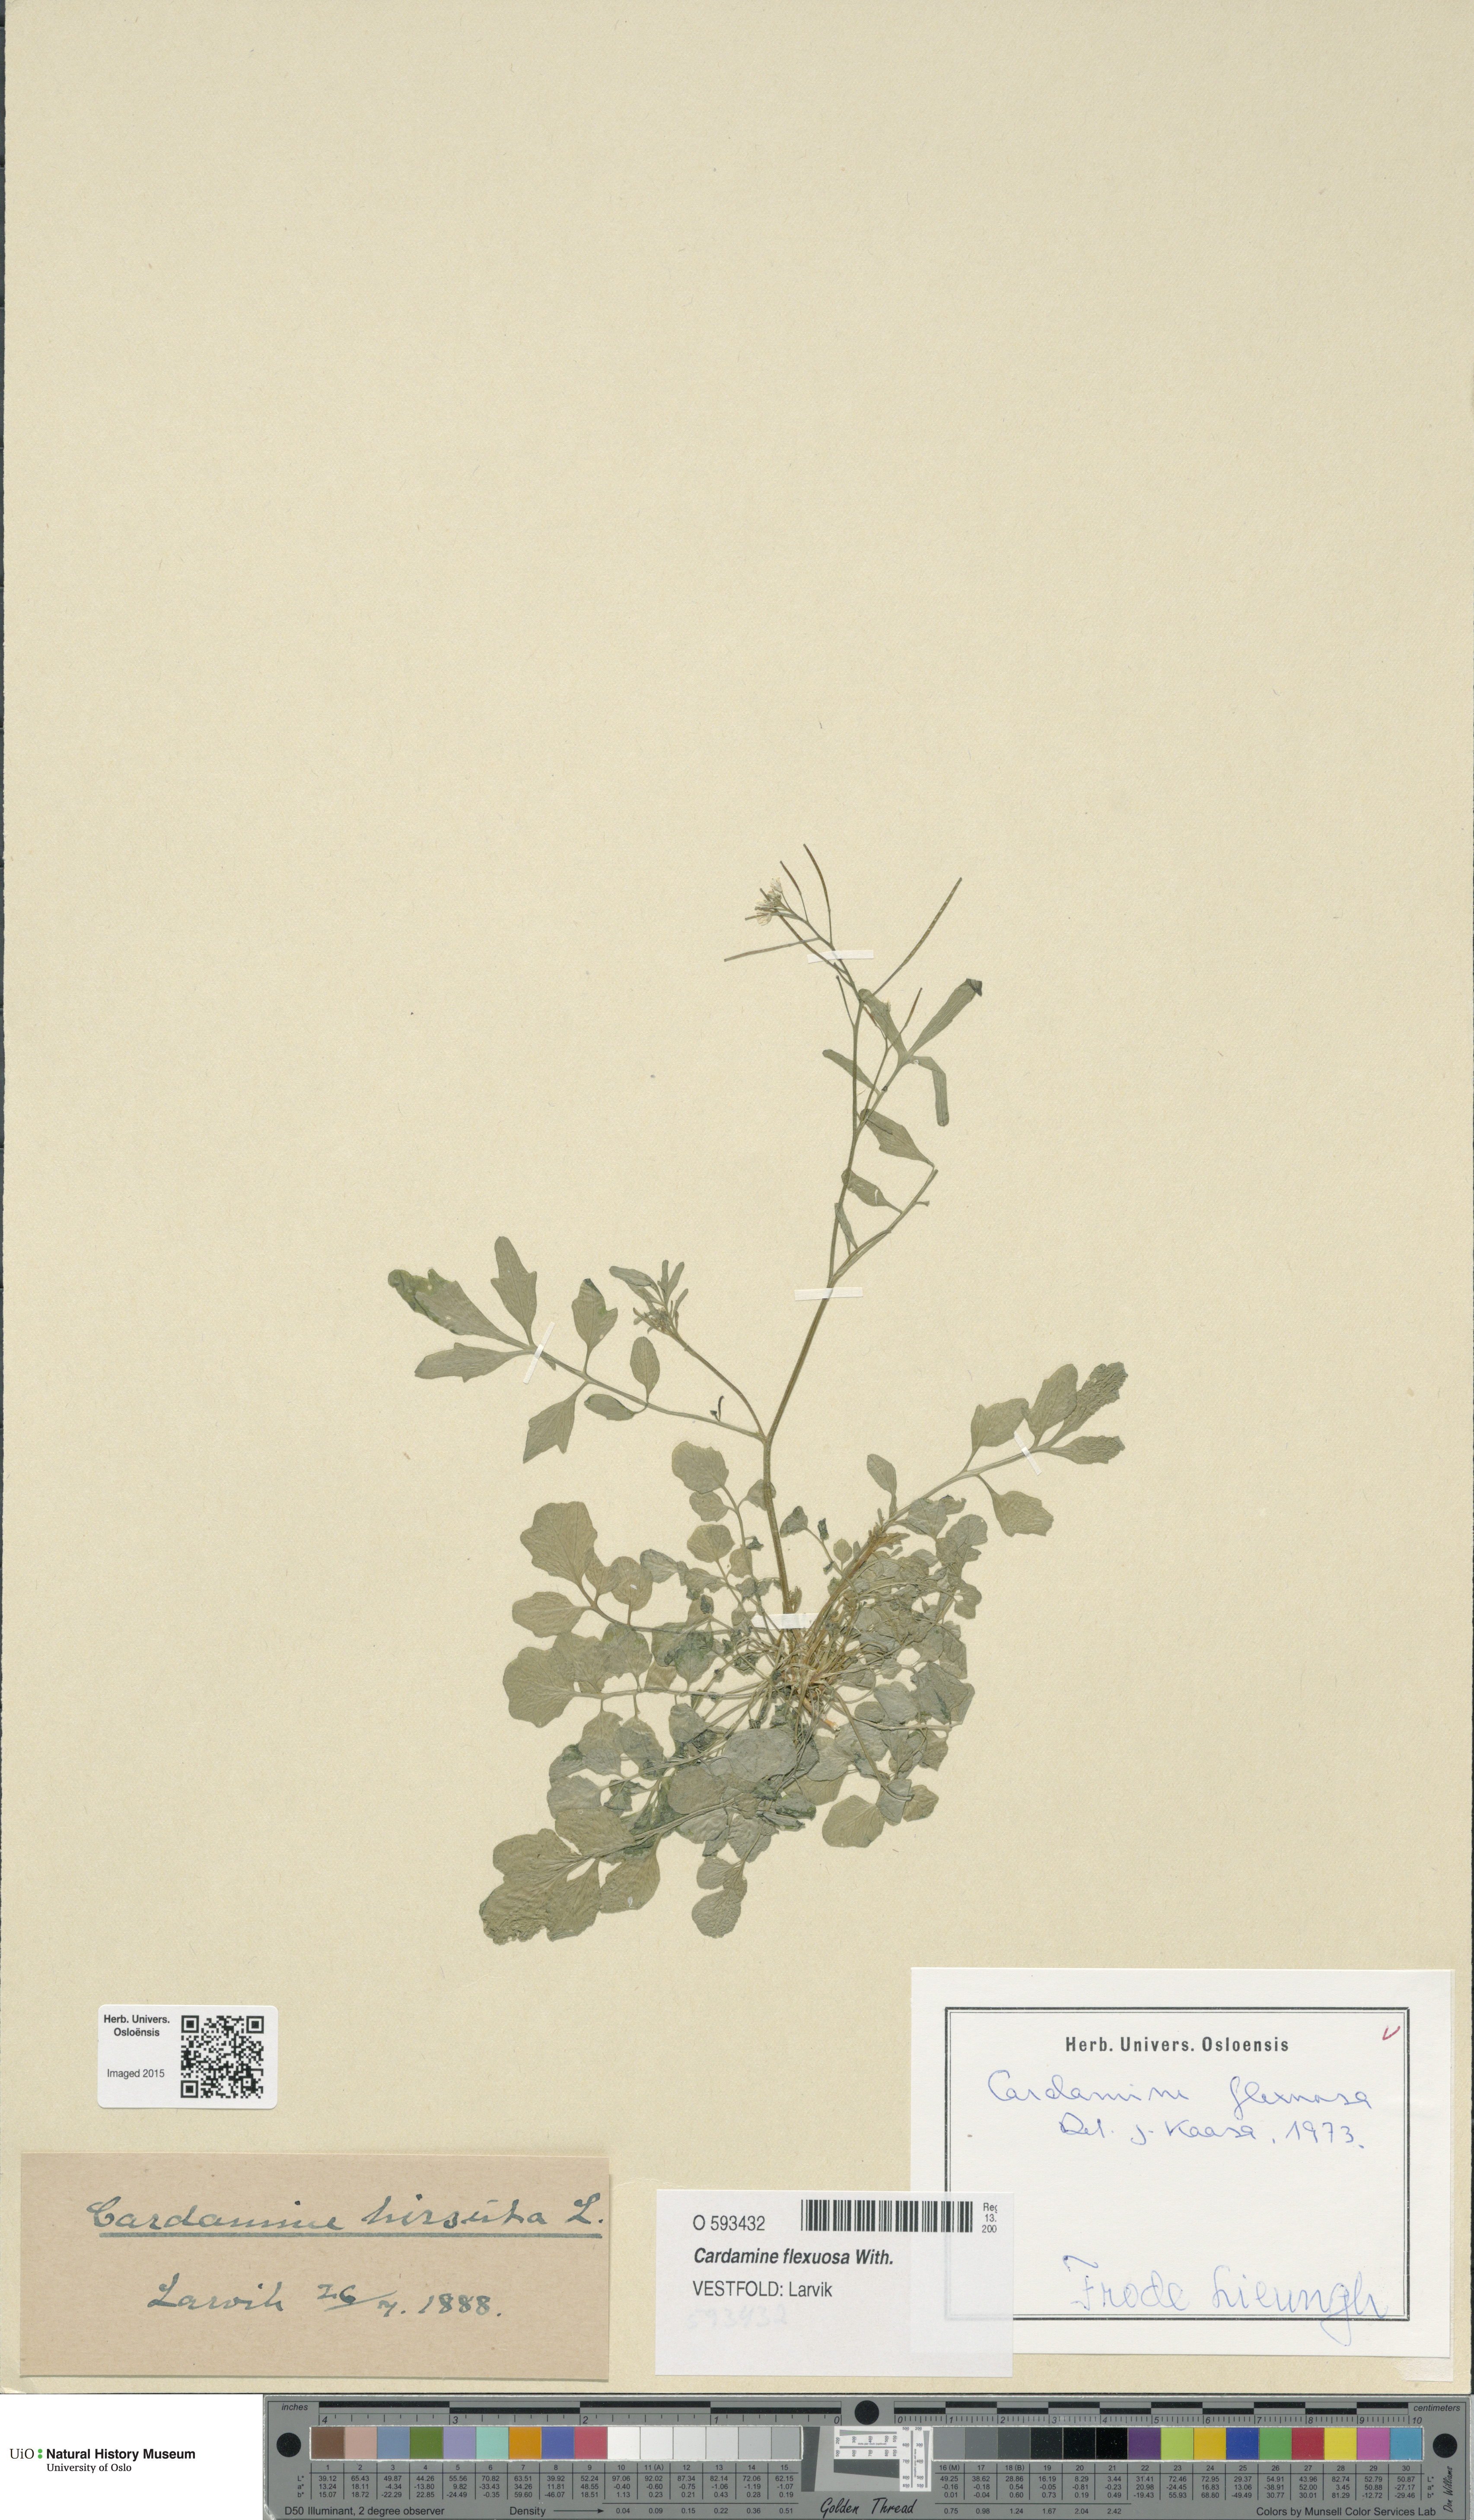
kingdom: Plantae
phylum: Tracheophyta
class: Magnoliopsida
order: Brassicales
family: Brassicaceae
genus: Cardamine
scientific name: Cardamine flexuosa
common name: Woodland bittercress
